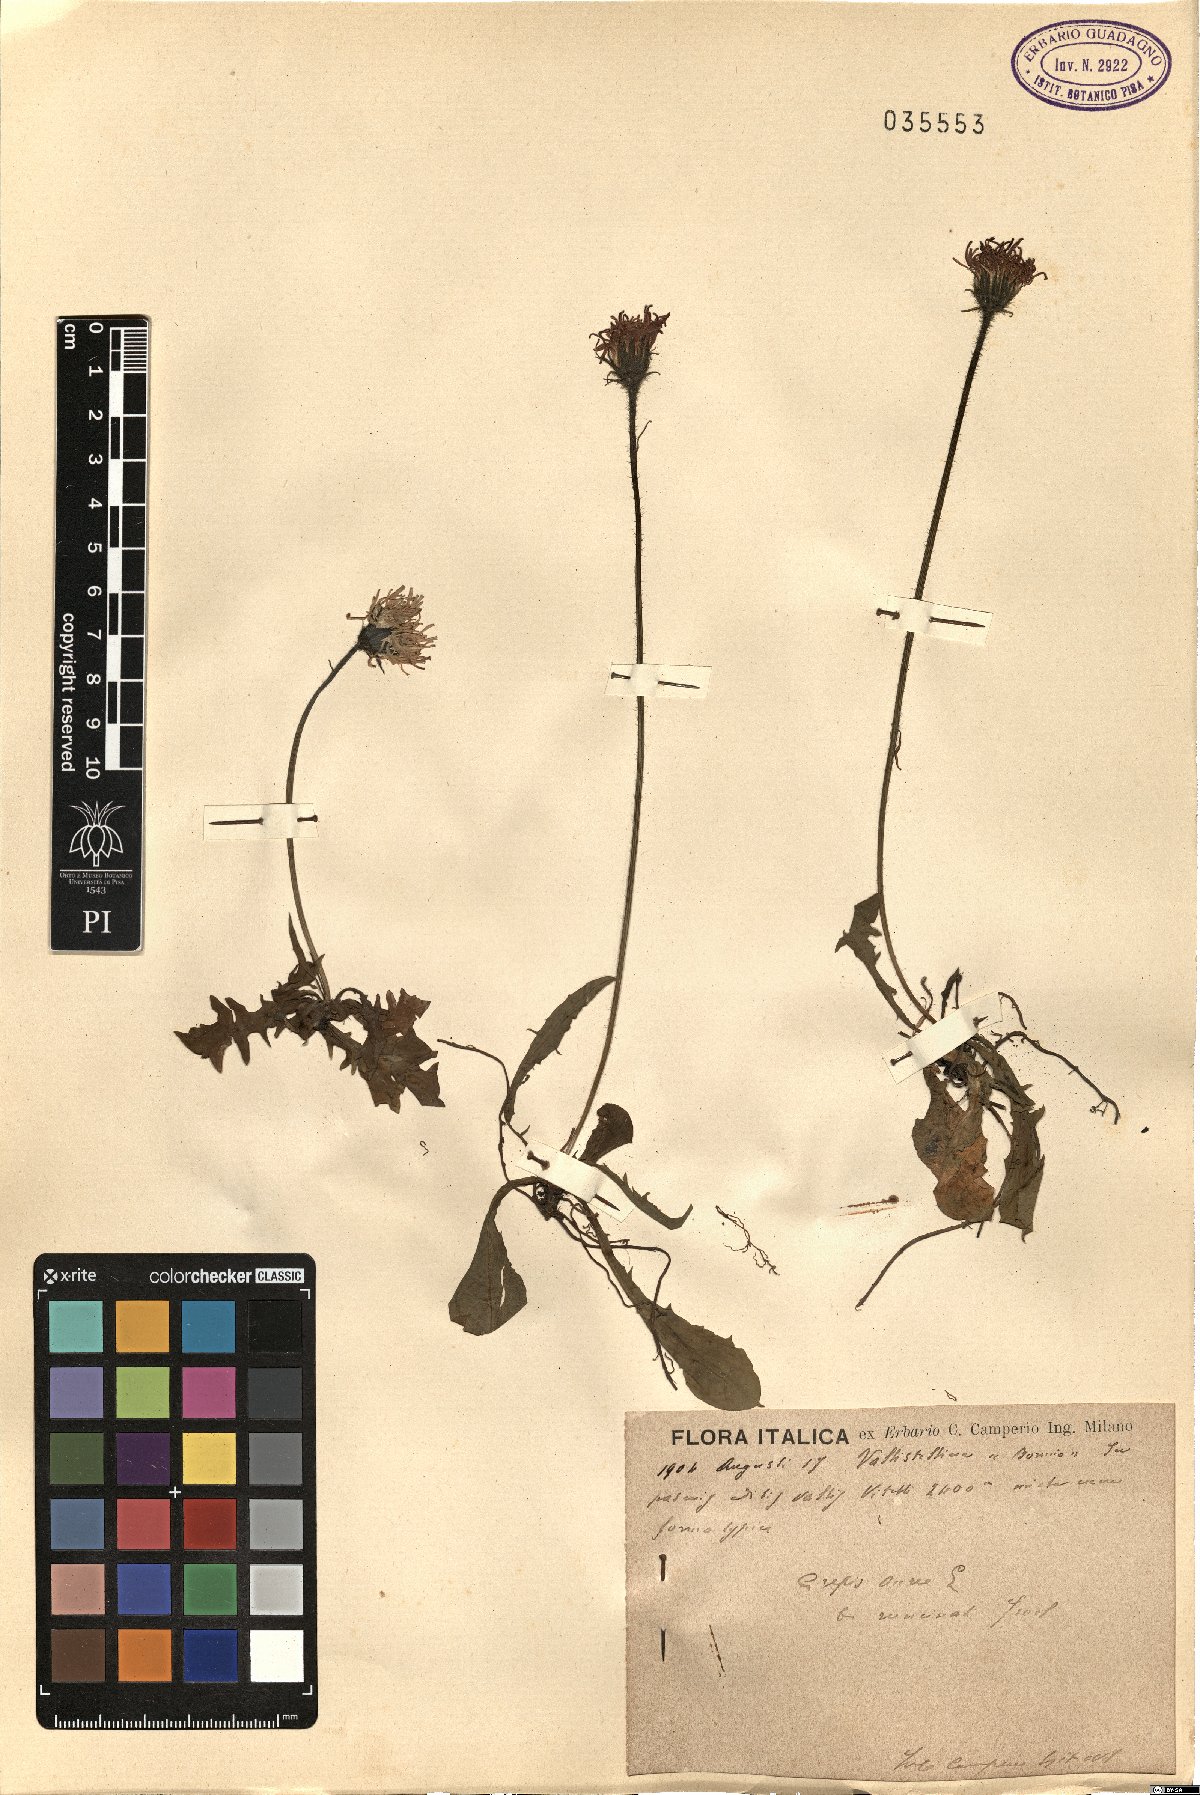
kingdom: Plantae
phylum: Tracheophyta
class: Magnoliopsida
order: Asterales
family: Asteraceae
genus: Crepis
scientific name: Crepis aurea
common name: Golden hawk's-beard
